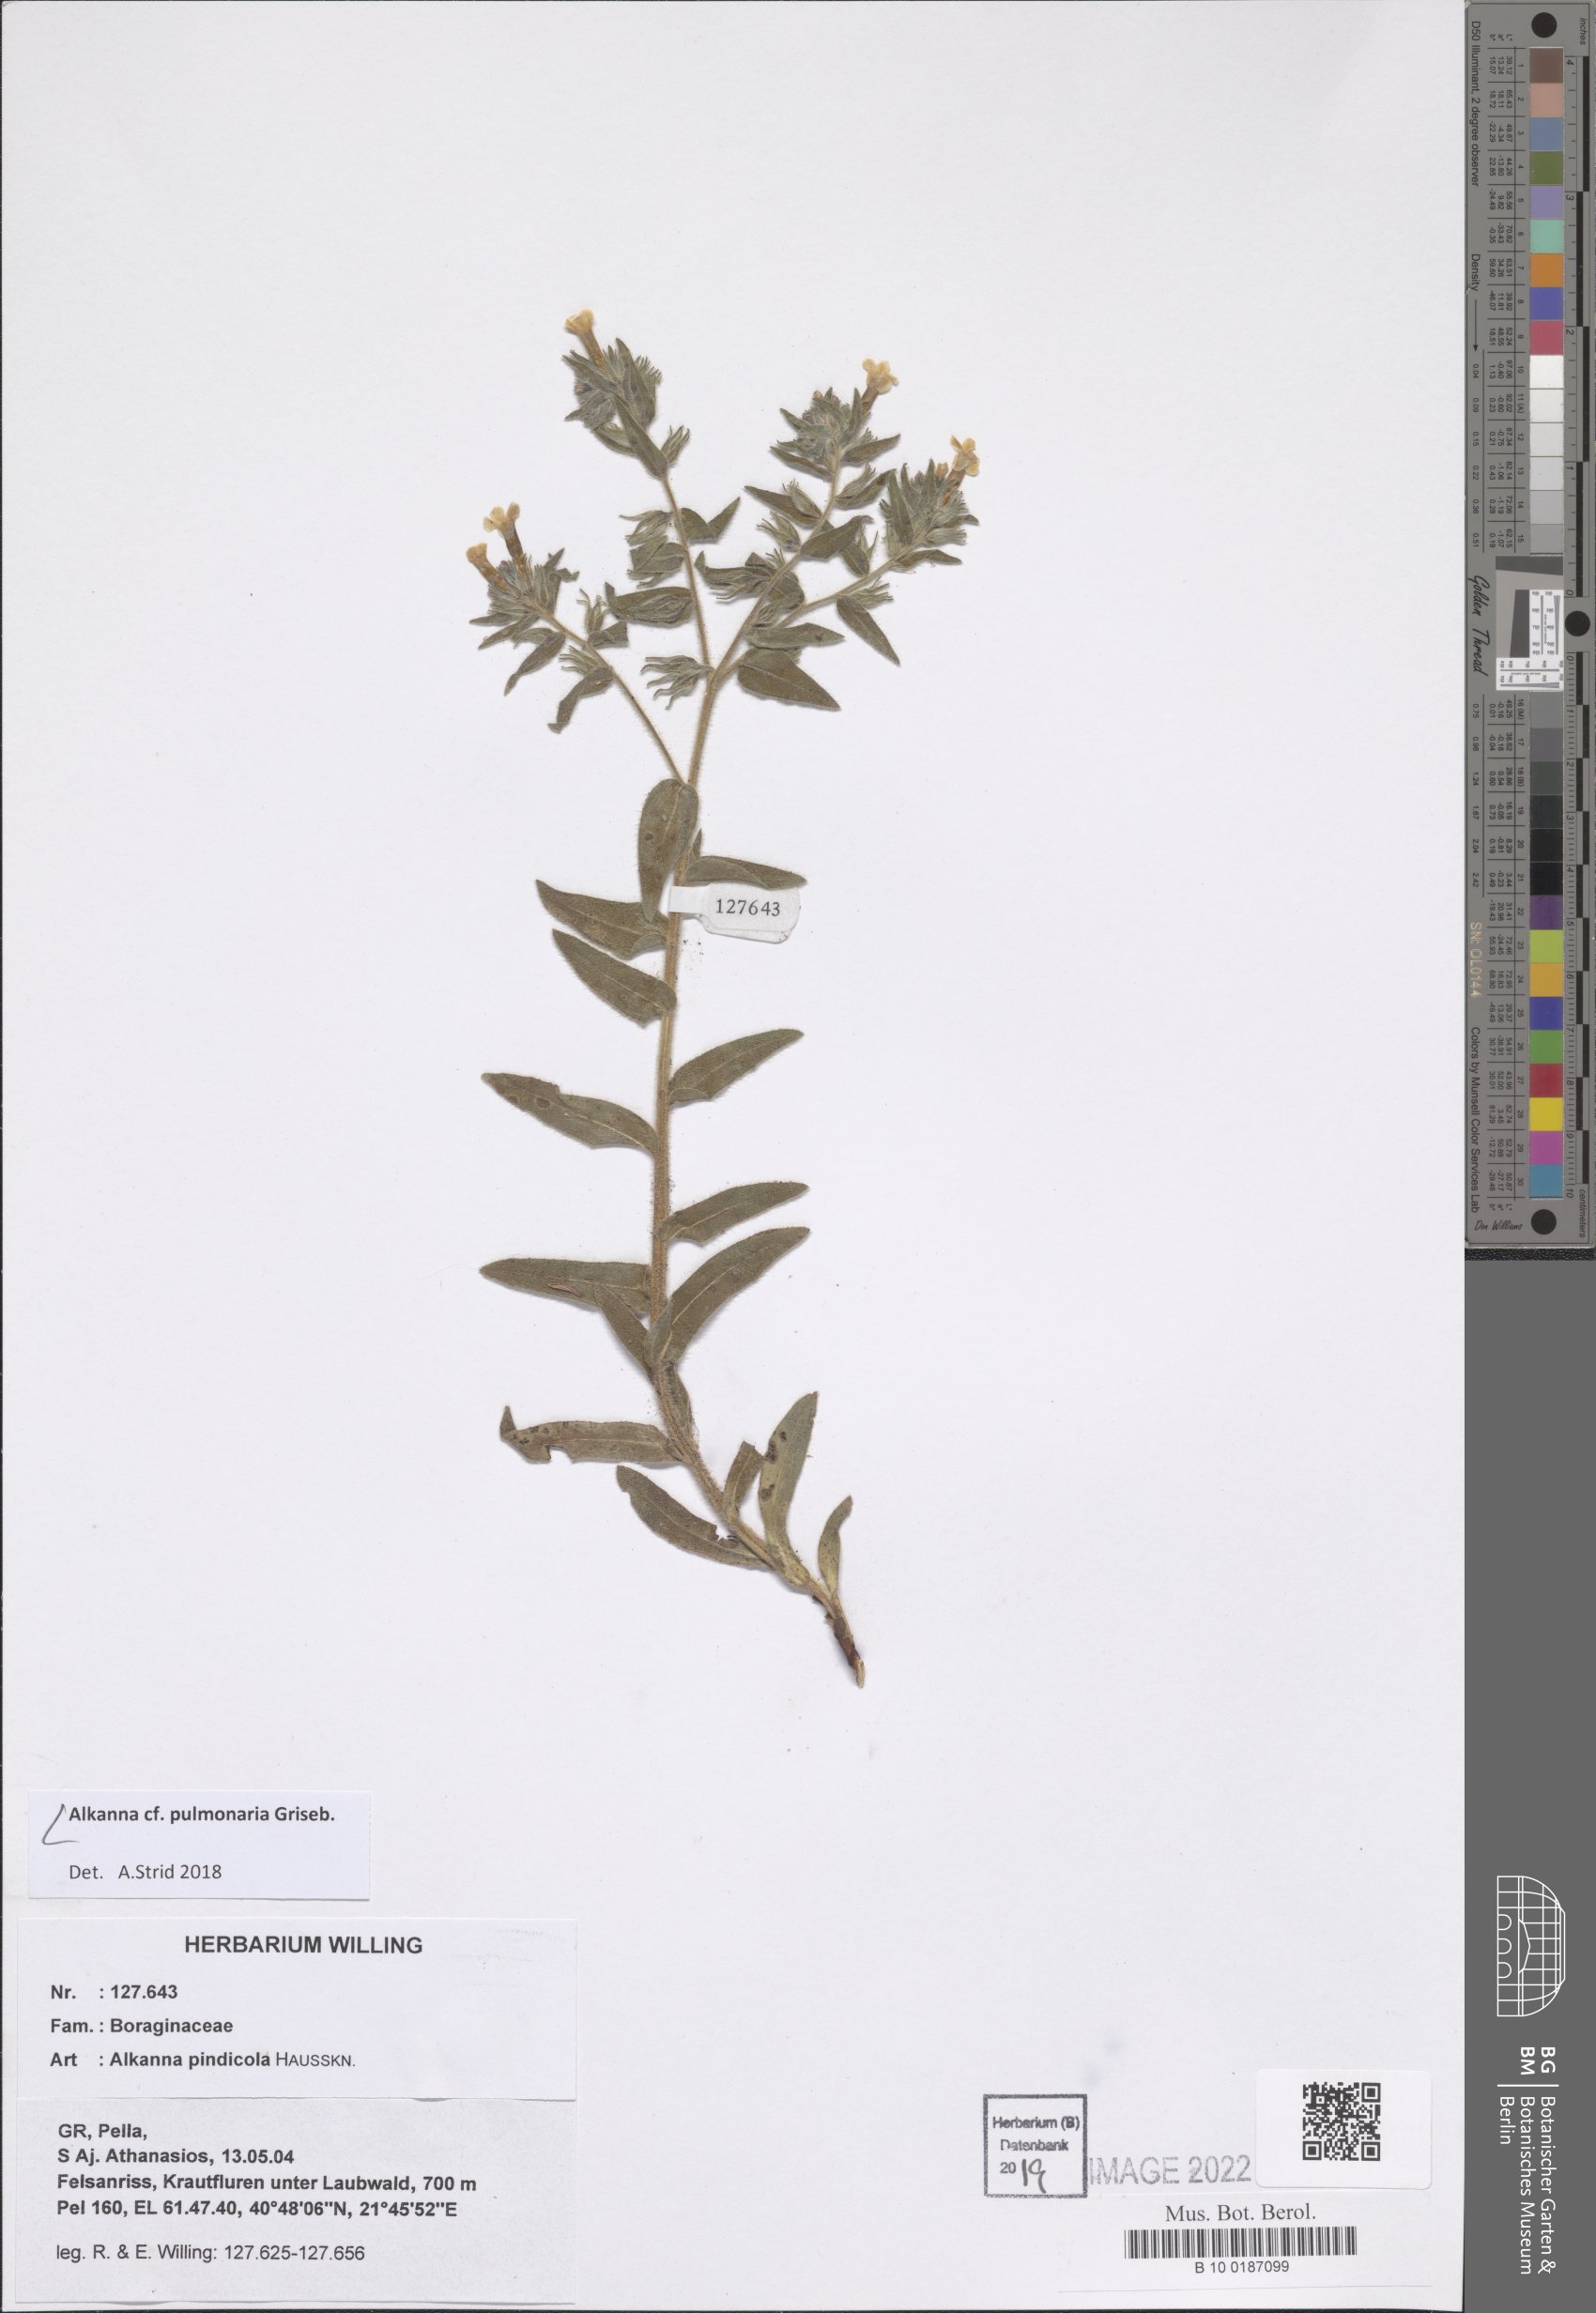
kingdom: Plantae
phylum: Tracheophyta
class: Magnoliopsida
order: Boraginales
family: Boraginaceae
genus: Alkanna
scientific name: Alkanna pulmonaria
